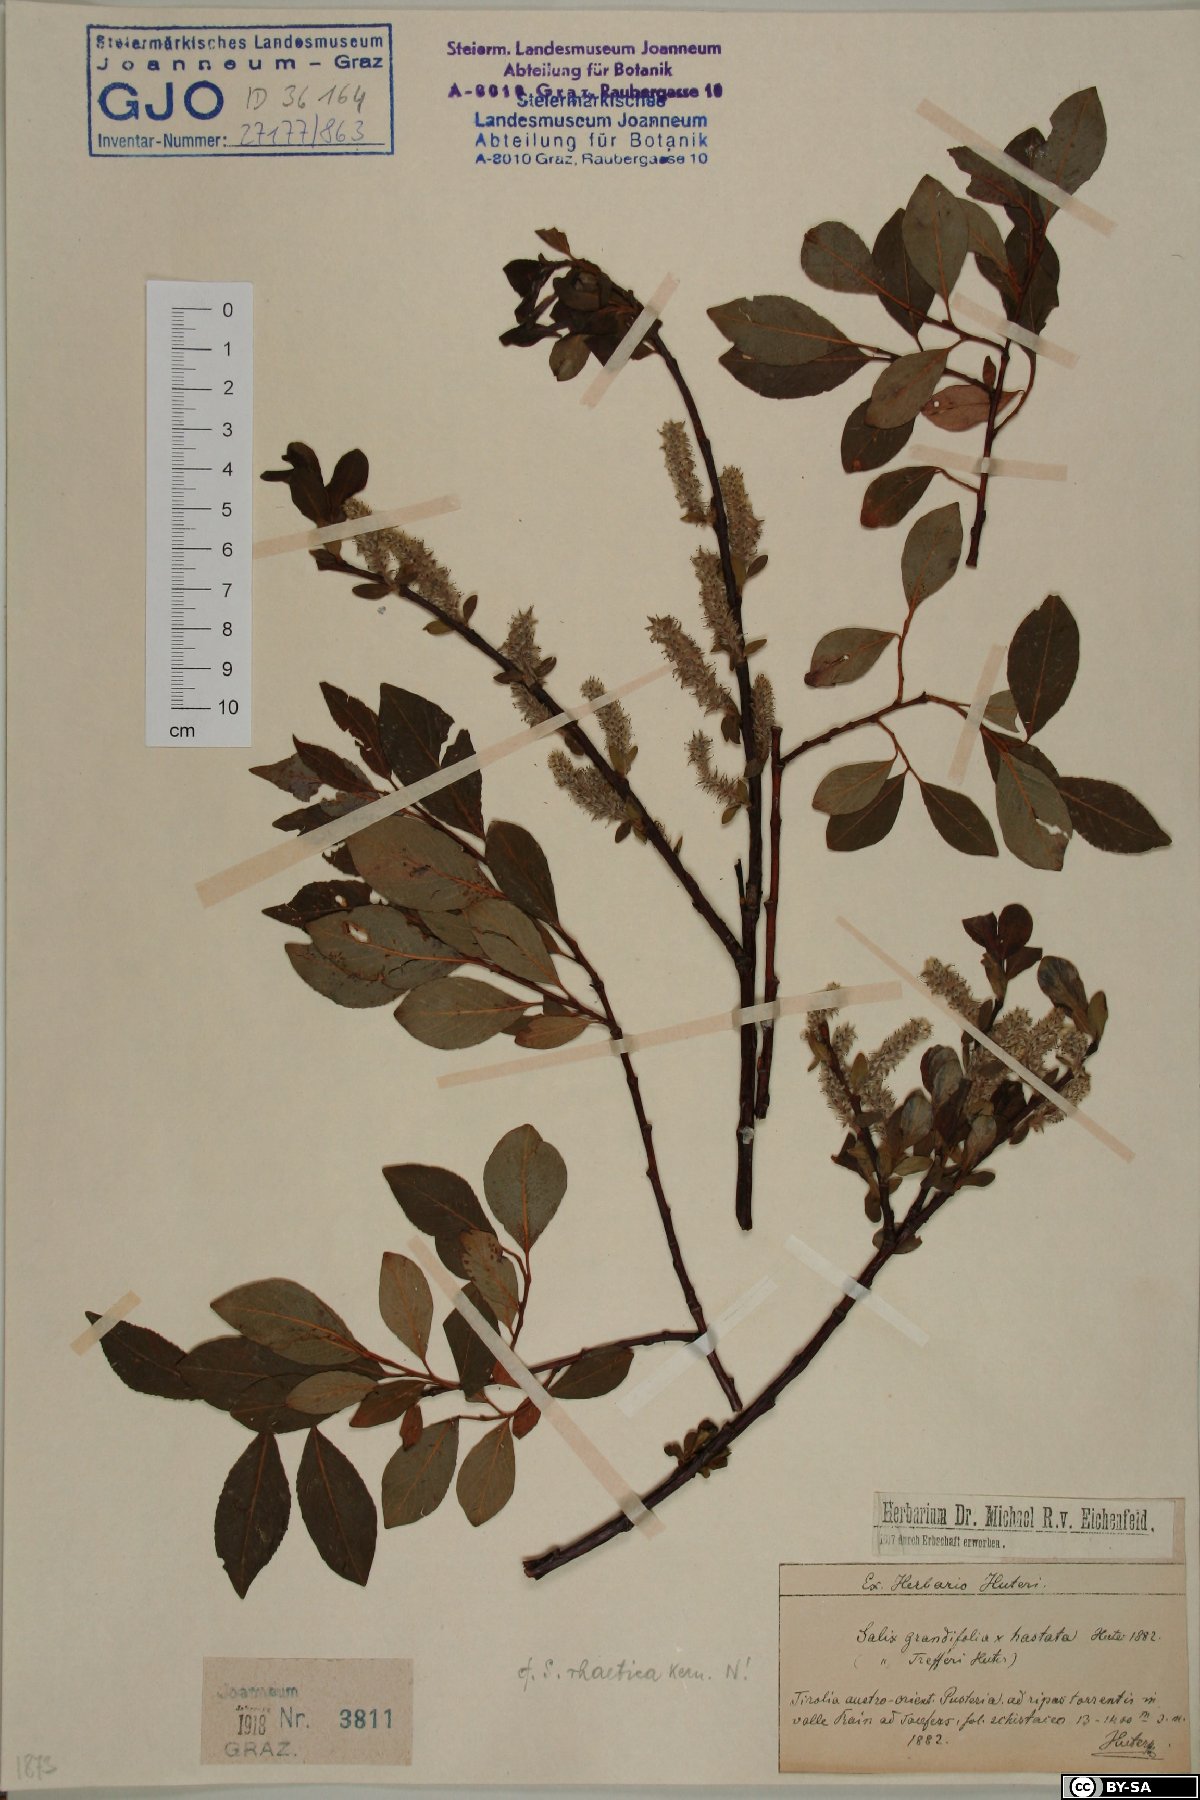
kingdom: Plantae
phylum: Tracheophyta
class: Magnoliopsida
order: Malpighiales
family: Salicaceae
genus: Salix
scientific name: Salix hegetschweileri
